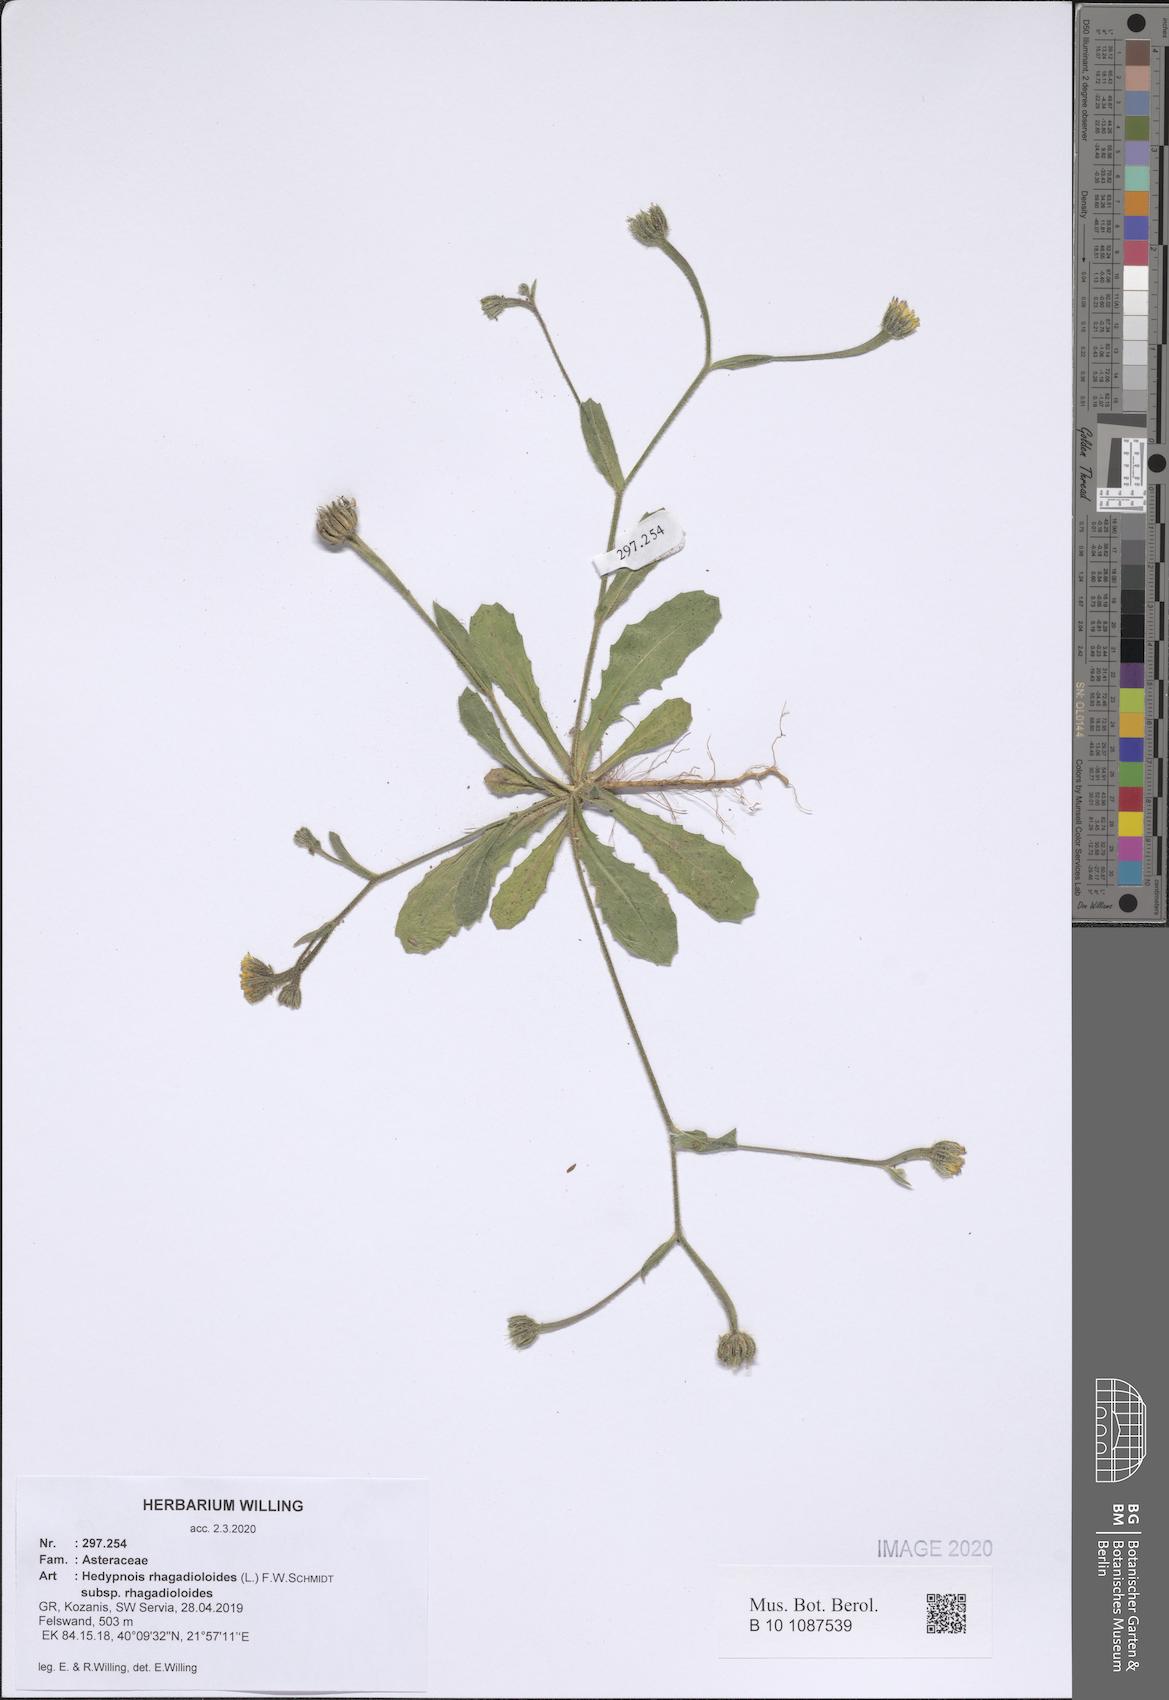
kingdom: Plantae
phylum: Tracheophyta
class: Magnoliopsida
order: Asterales
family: Asteraceae
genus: Hedypnois
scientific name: Hedypnois rhagadioloides
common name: Cretan weed
